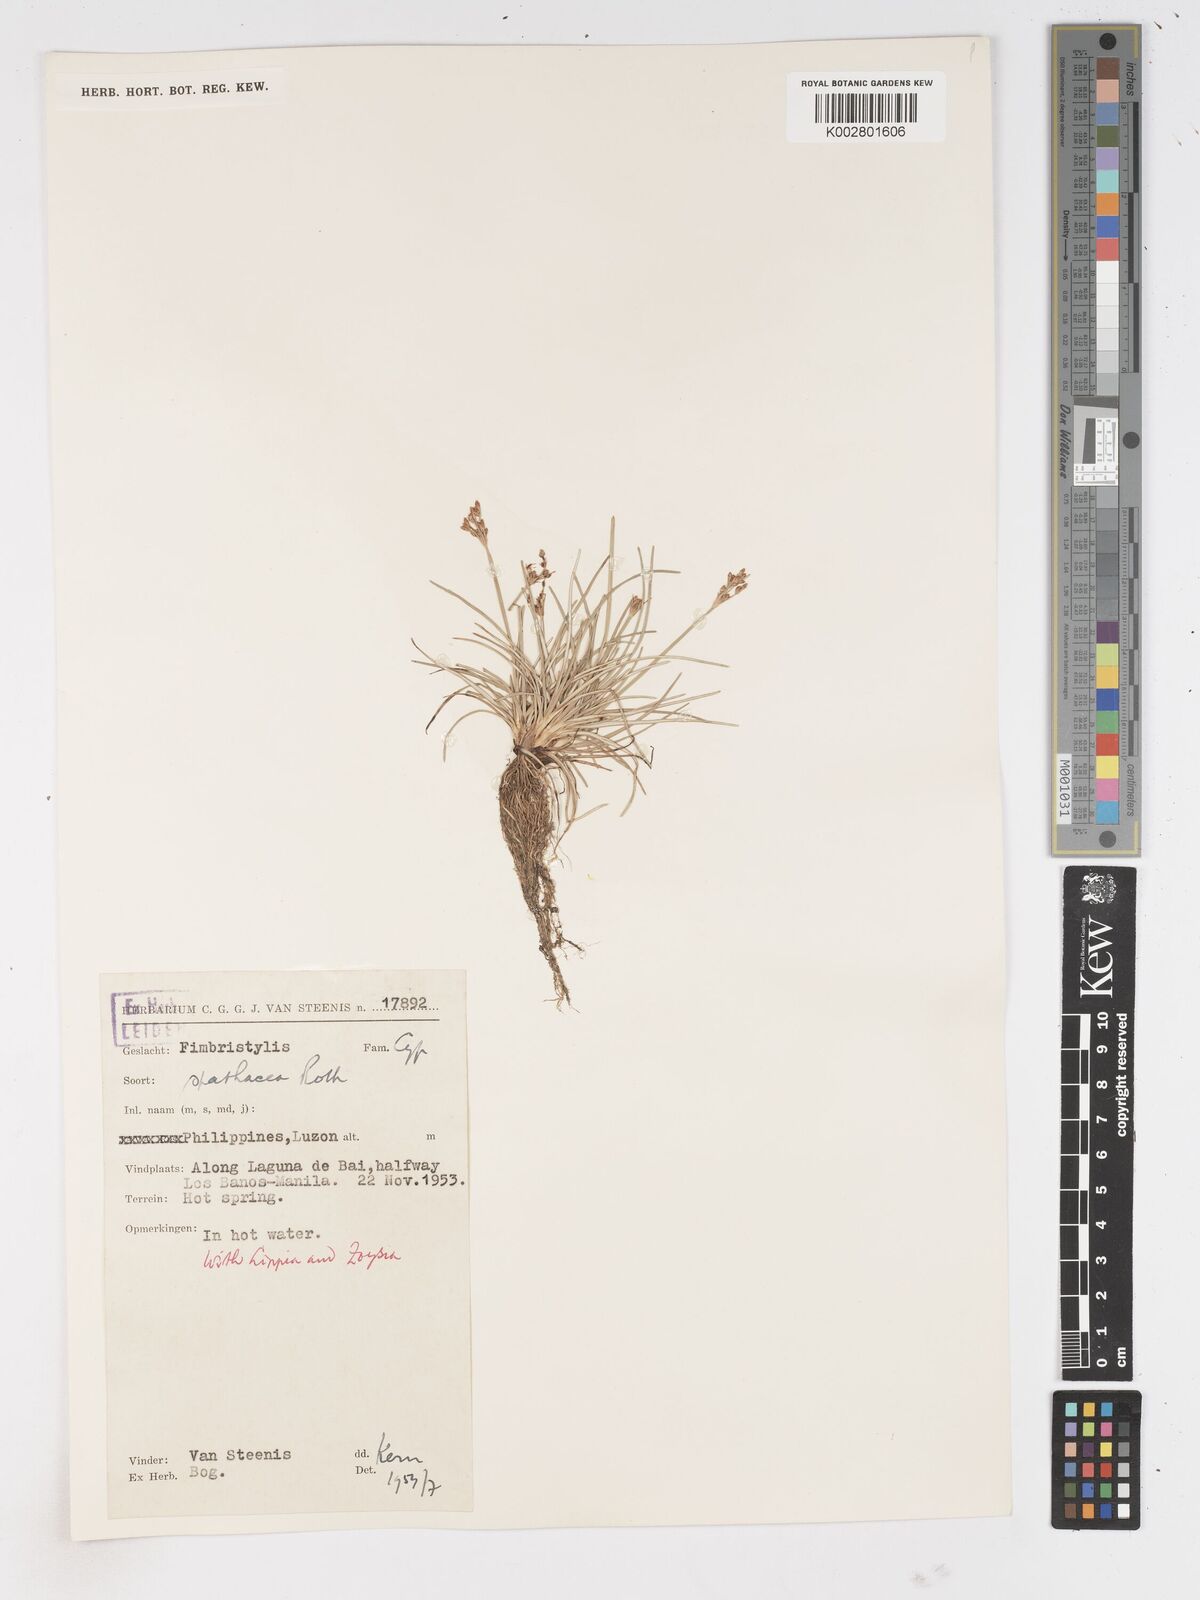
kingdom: Plantae
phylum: Tracheophyta
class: Liliopsida
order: Poales
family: Cyperaceae
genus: Fimbristylis
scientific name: Fimbristylis cymosa
